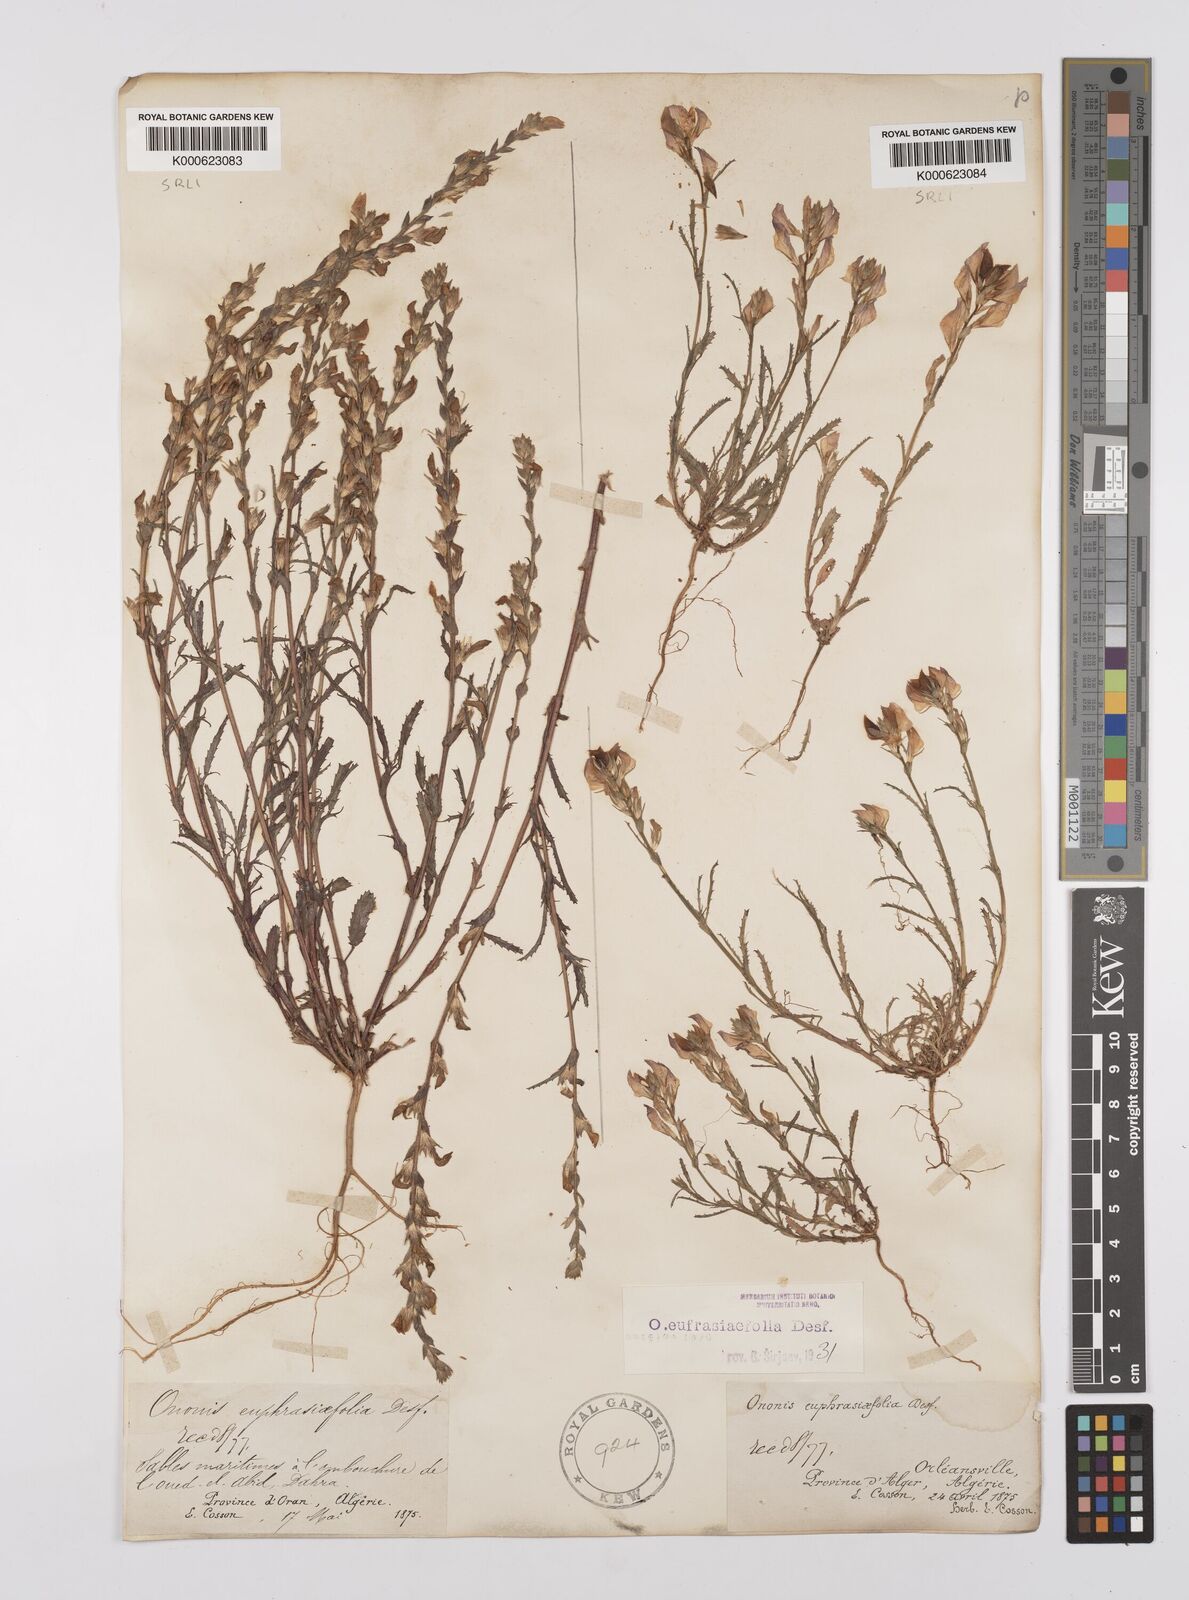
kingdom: Plantae
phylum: Tracheophyta
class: Magnoliopsida
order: Fabales
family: Fabaceae
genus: Ononis
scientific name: Ononis
